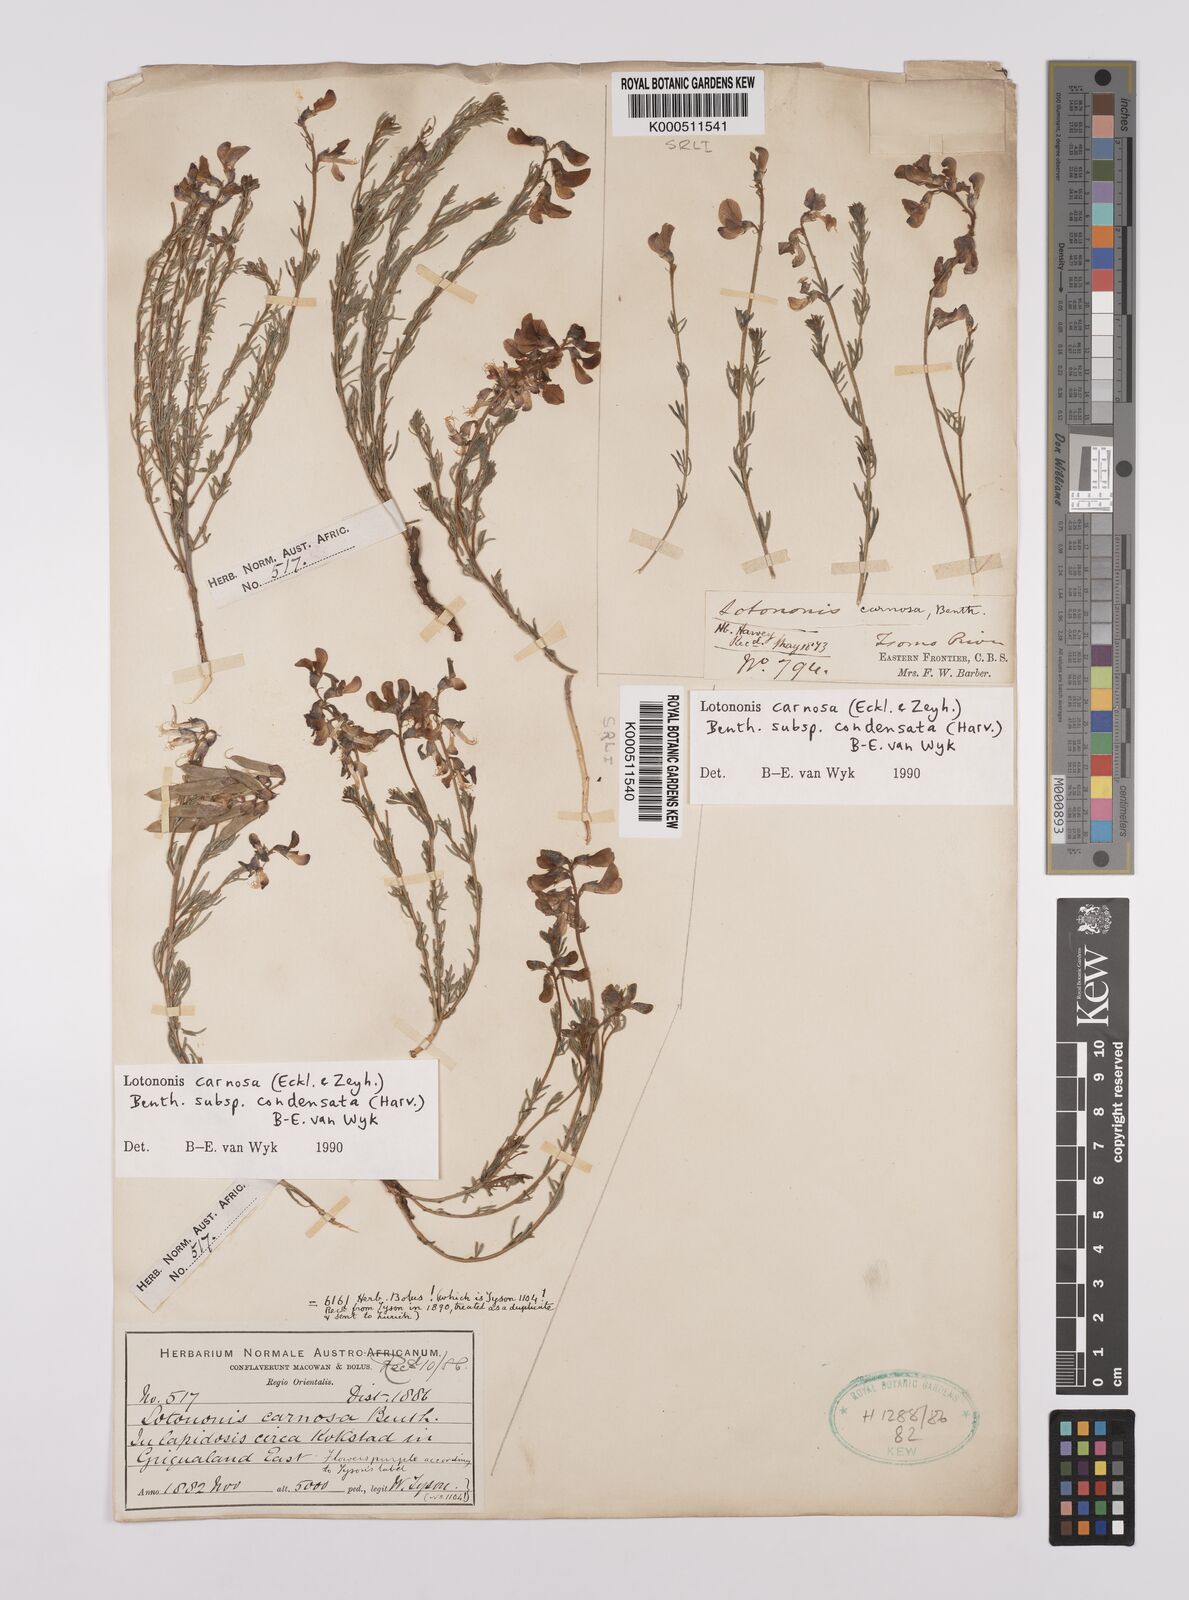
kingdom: Plantae
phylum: Tracheophyta
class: Magnoliopsida
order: Fabales
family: Fabaceae
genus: Lotononis
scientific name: Lotononis carnosa
